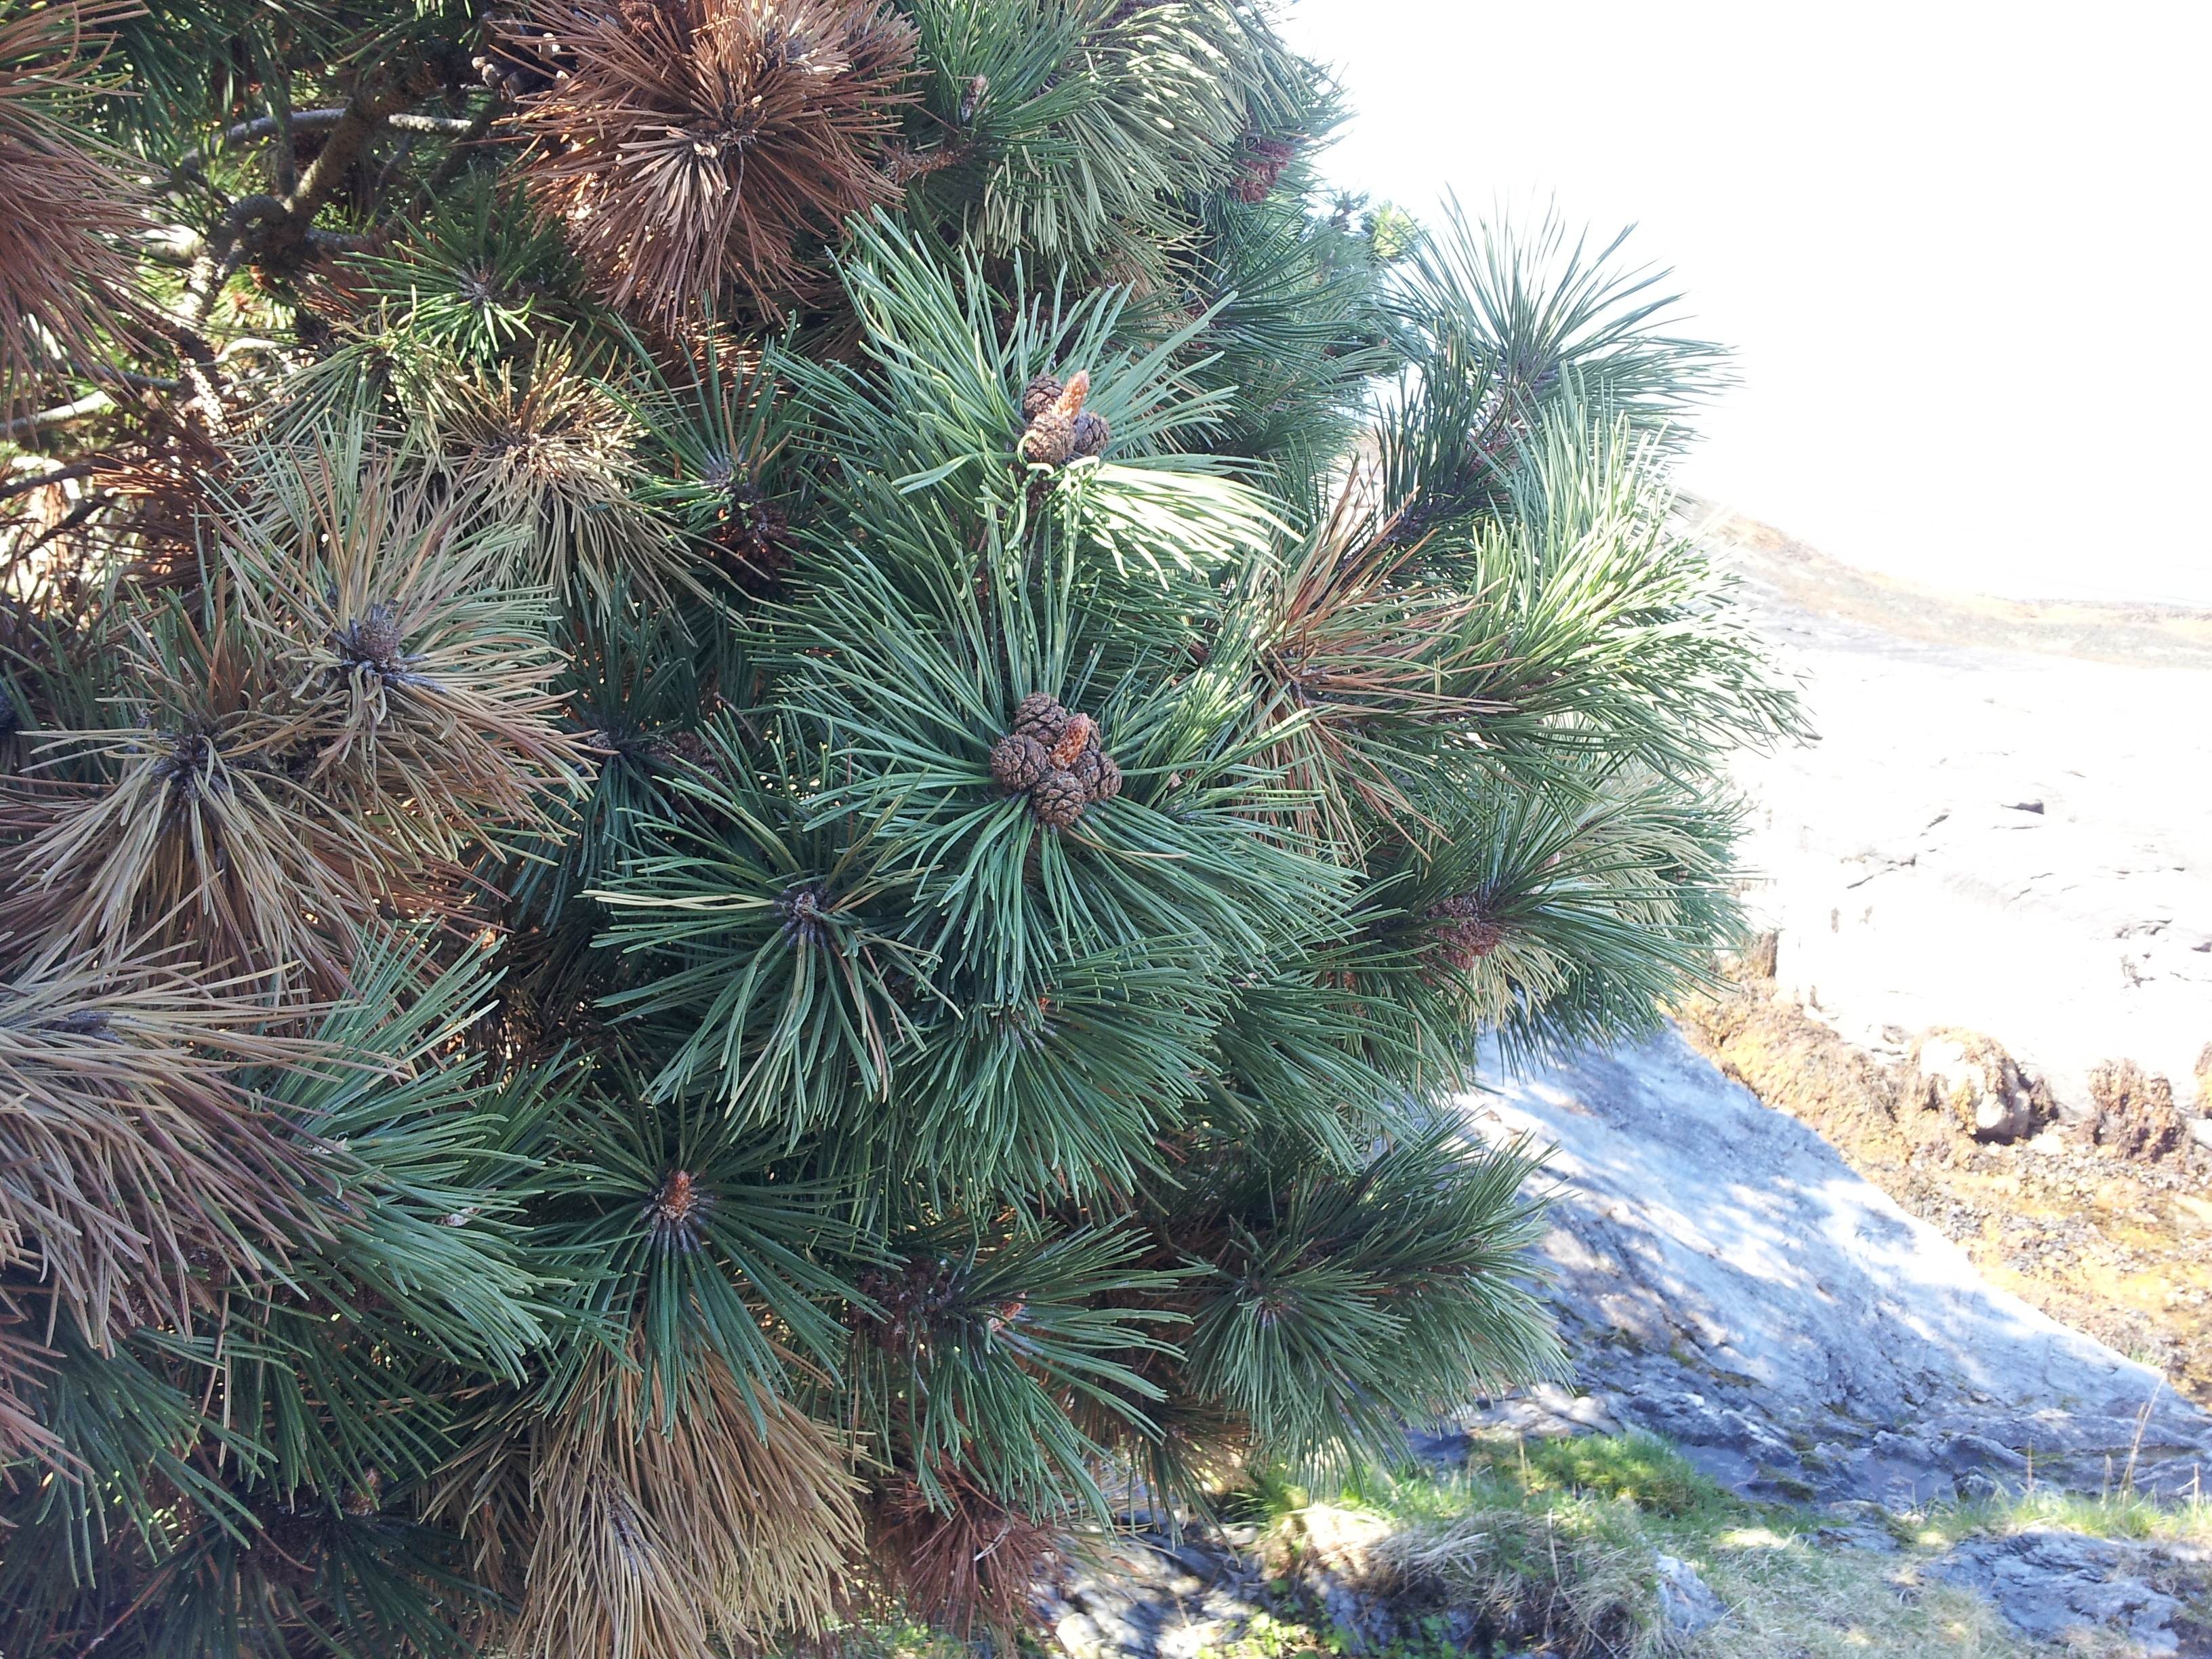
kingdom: Plantae
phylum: Tracheophyta
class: Pinopsida
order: Pinales
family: Pinaceae
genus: Pinus
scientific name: Pinus mugo
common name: Mugo pine
